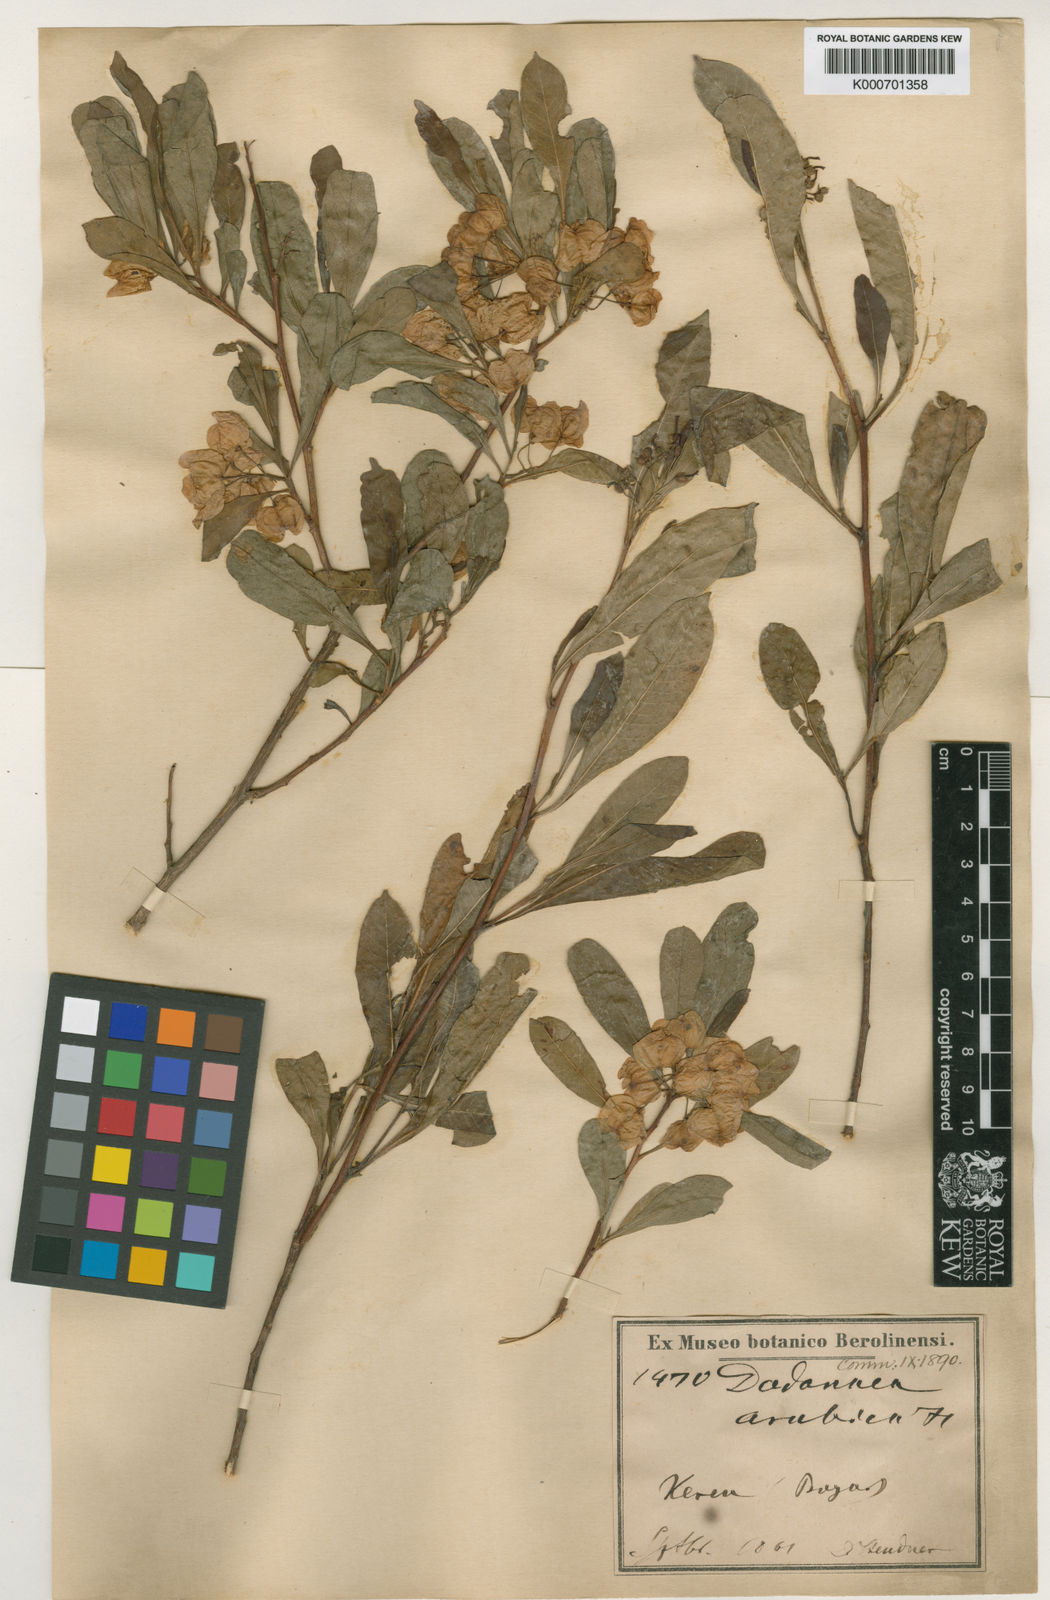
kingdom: Plantae
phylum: Tracheophyta
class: Magnoliopsida
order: Sapindales
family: Sapindaceae
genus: Dodonaea
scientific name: Dodonaea viscosa
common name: Hopbush
